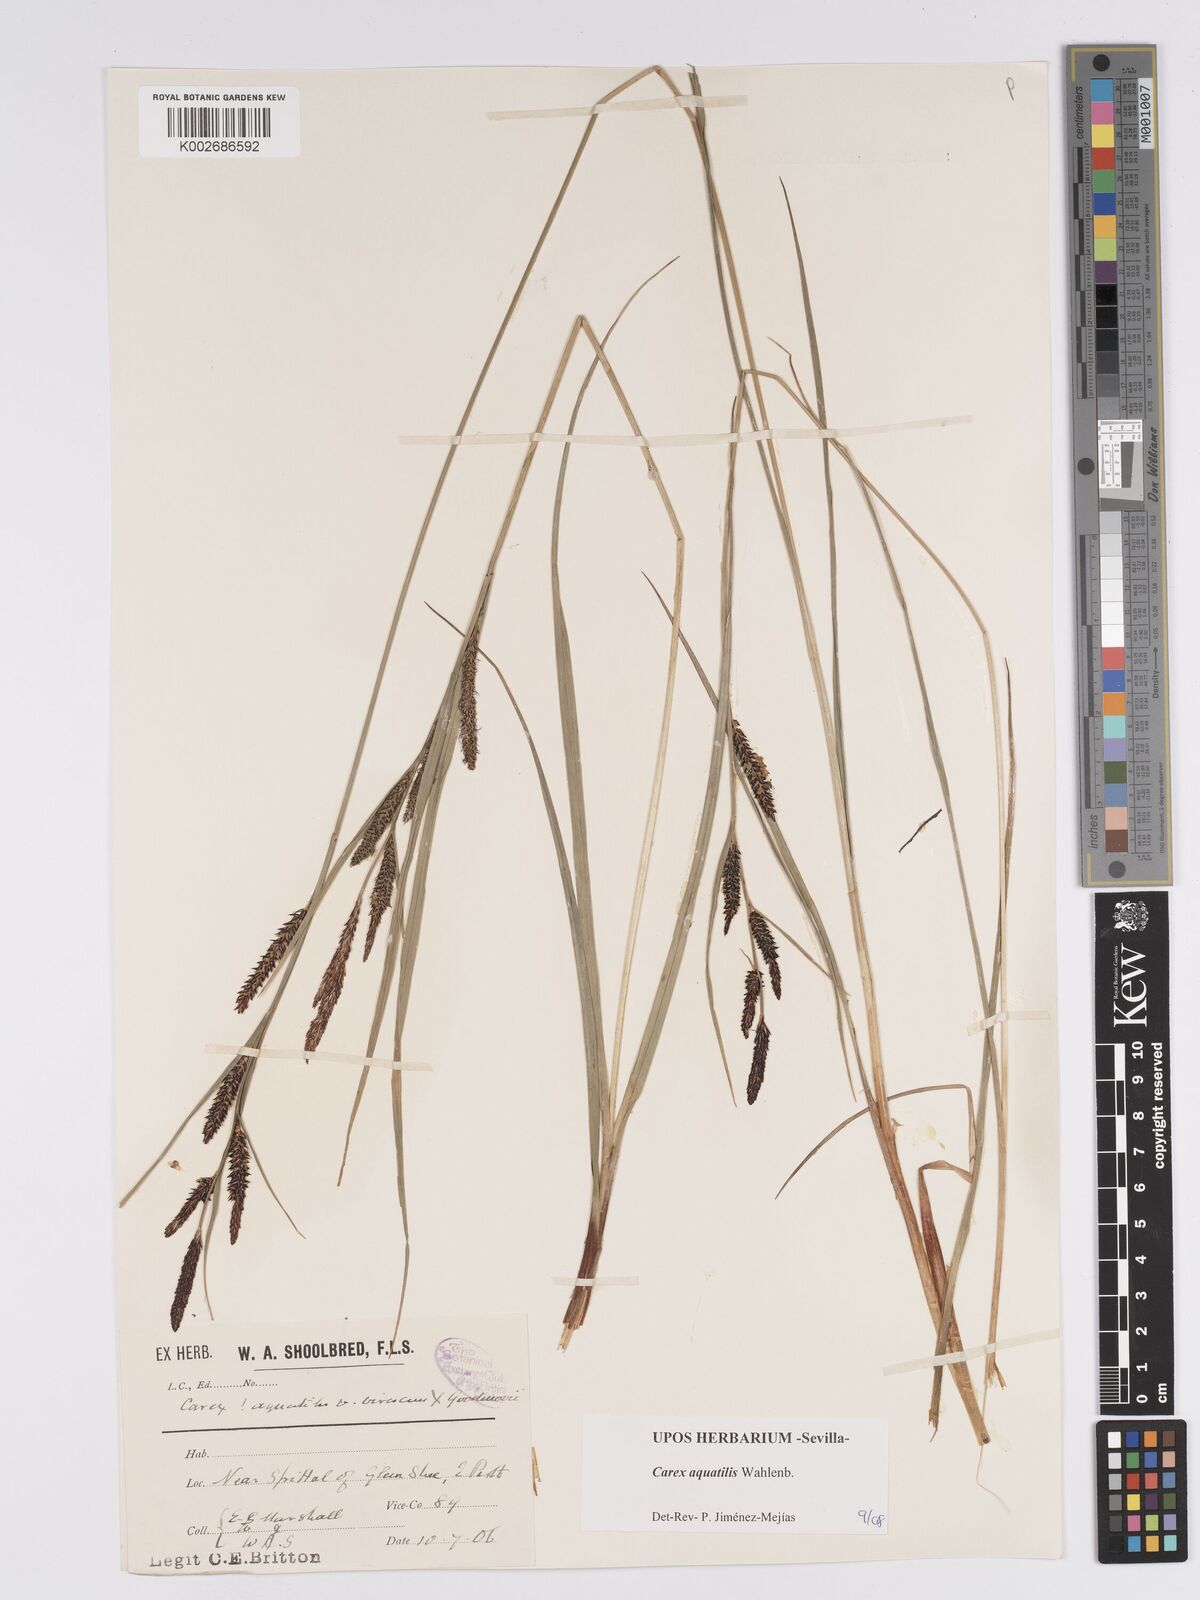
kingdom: Plantae
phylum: Tracheophyta
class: Liliopsida
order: Poales
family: Cyperaceae
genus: Carex
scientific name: Carex aquatilis
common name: Water sedge
